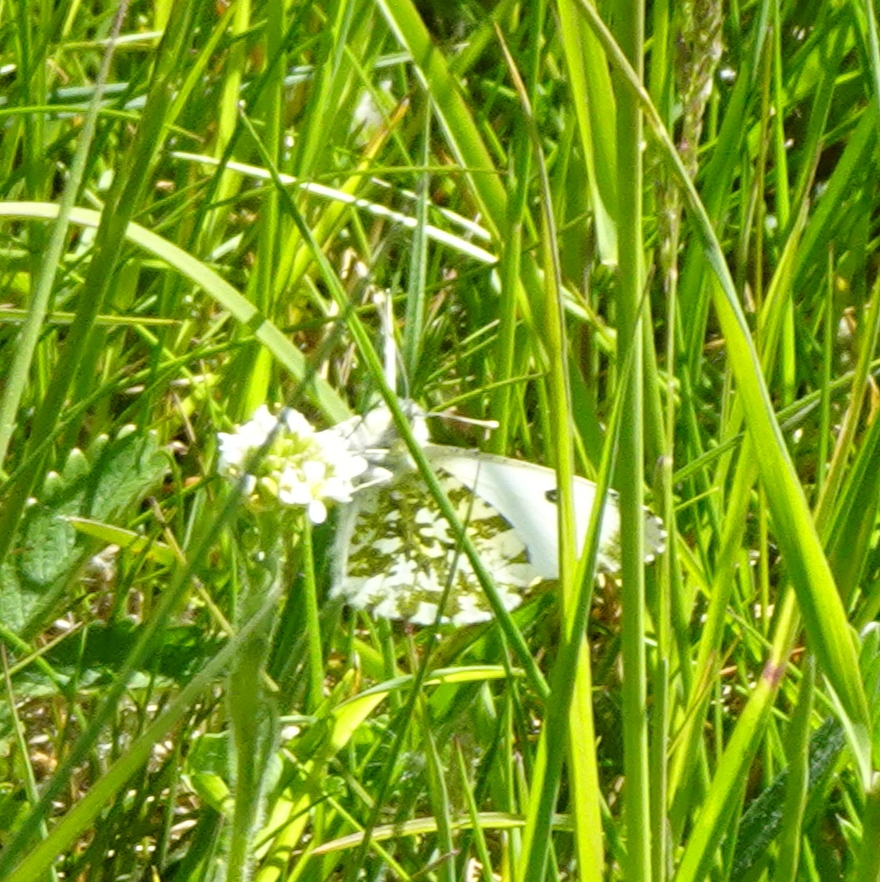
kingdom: Animalia
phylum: Arthropoda
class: Insecta
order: Lepidoptera
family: Pieridae
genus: Anthocharis
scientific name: Anthocharis cardamines
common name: Aurora
